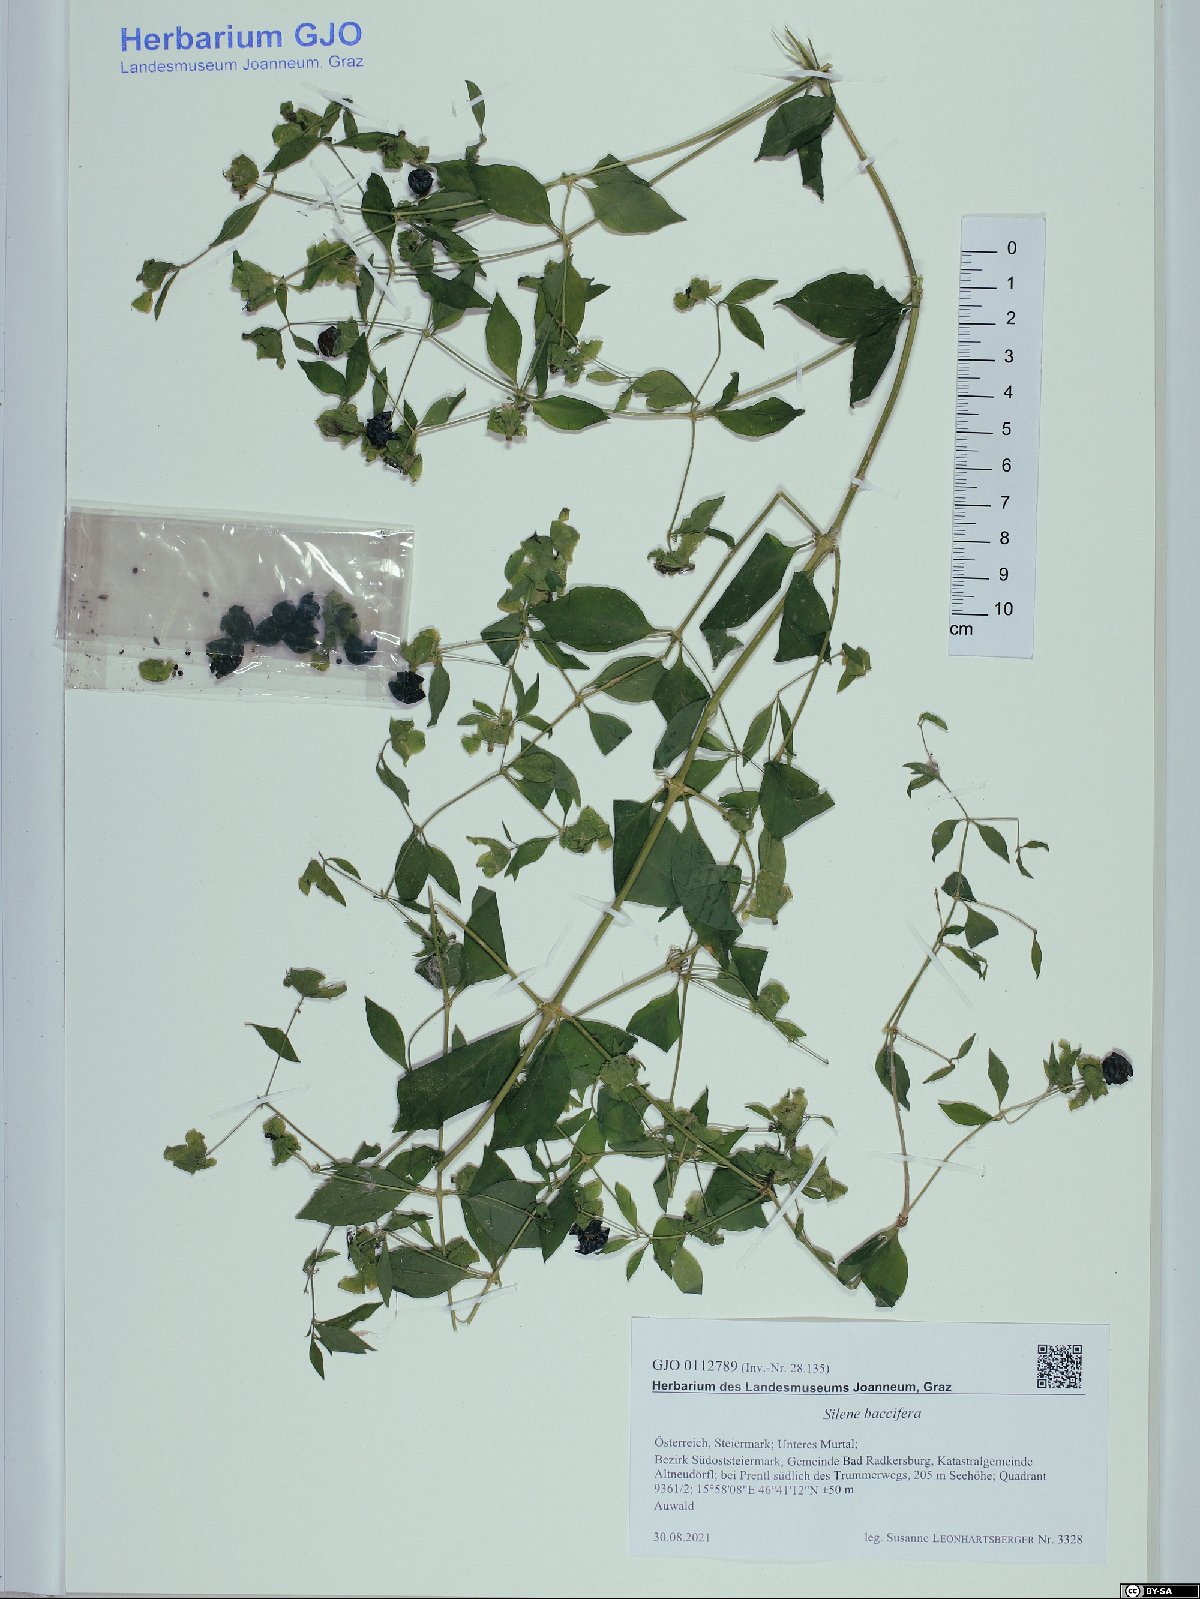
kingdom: Plantae
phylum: Tracheophyta
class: Magnoliopsida
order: Caryophyllales
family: Caryophyllaceae
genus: Silene
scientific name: Silene baccifera
